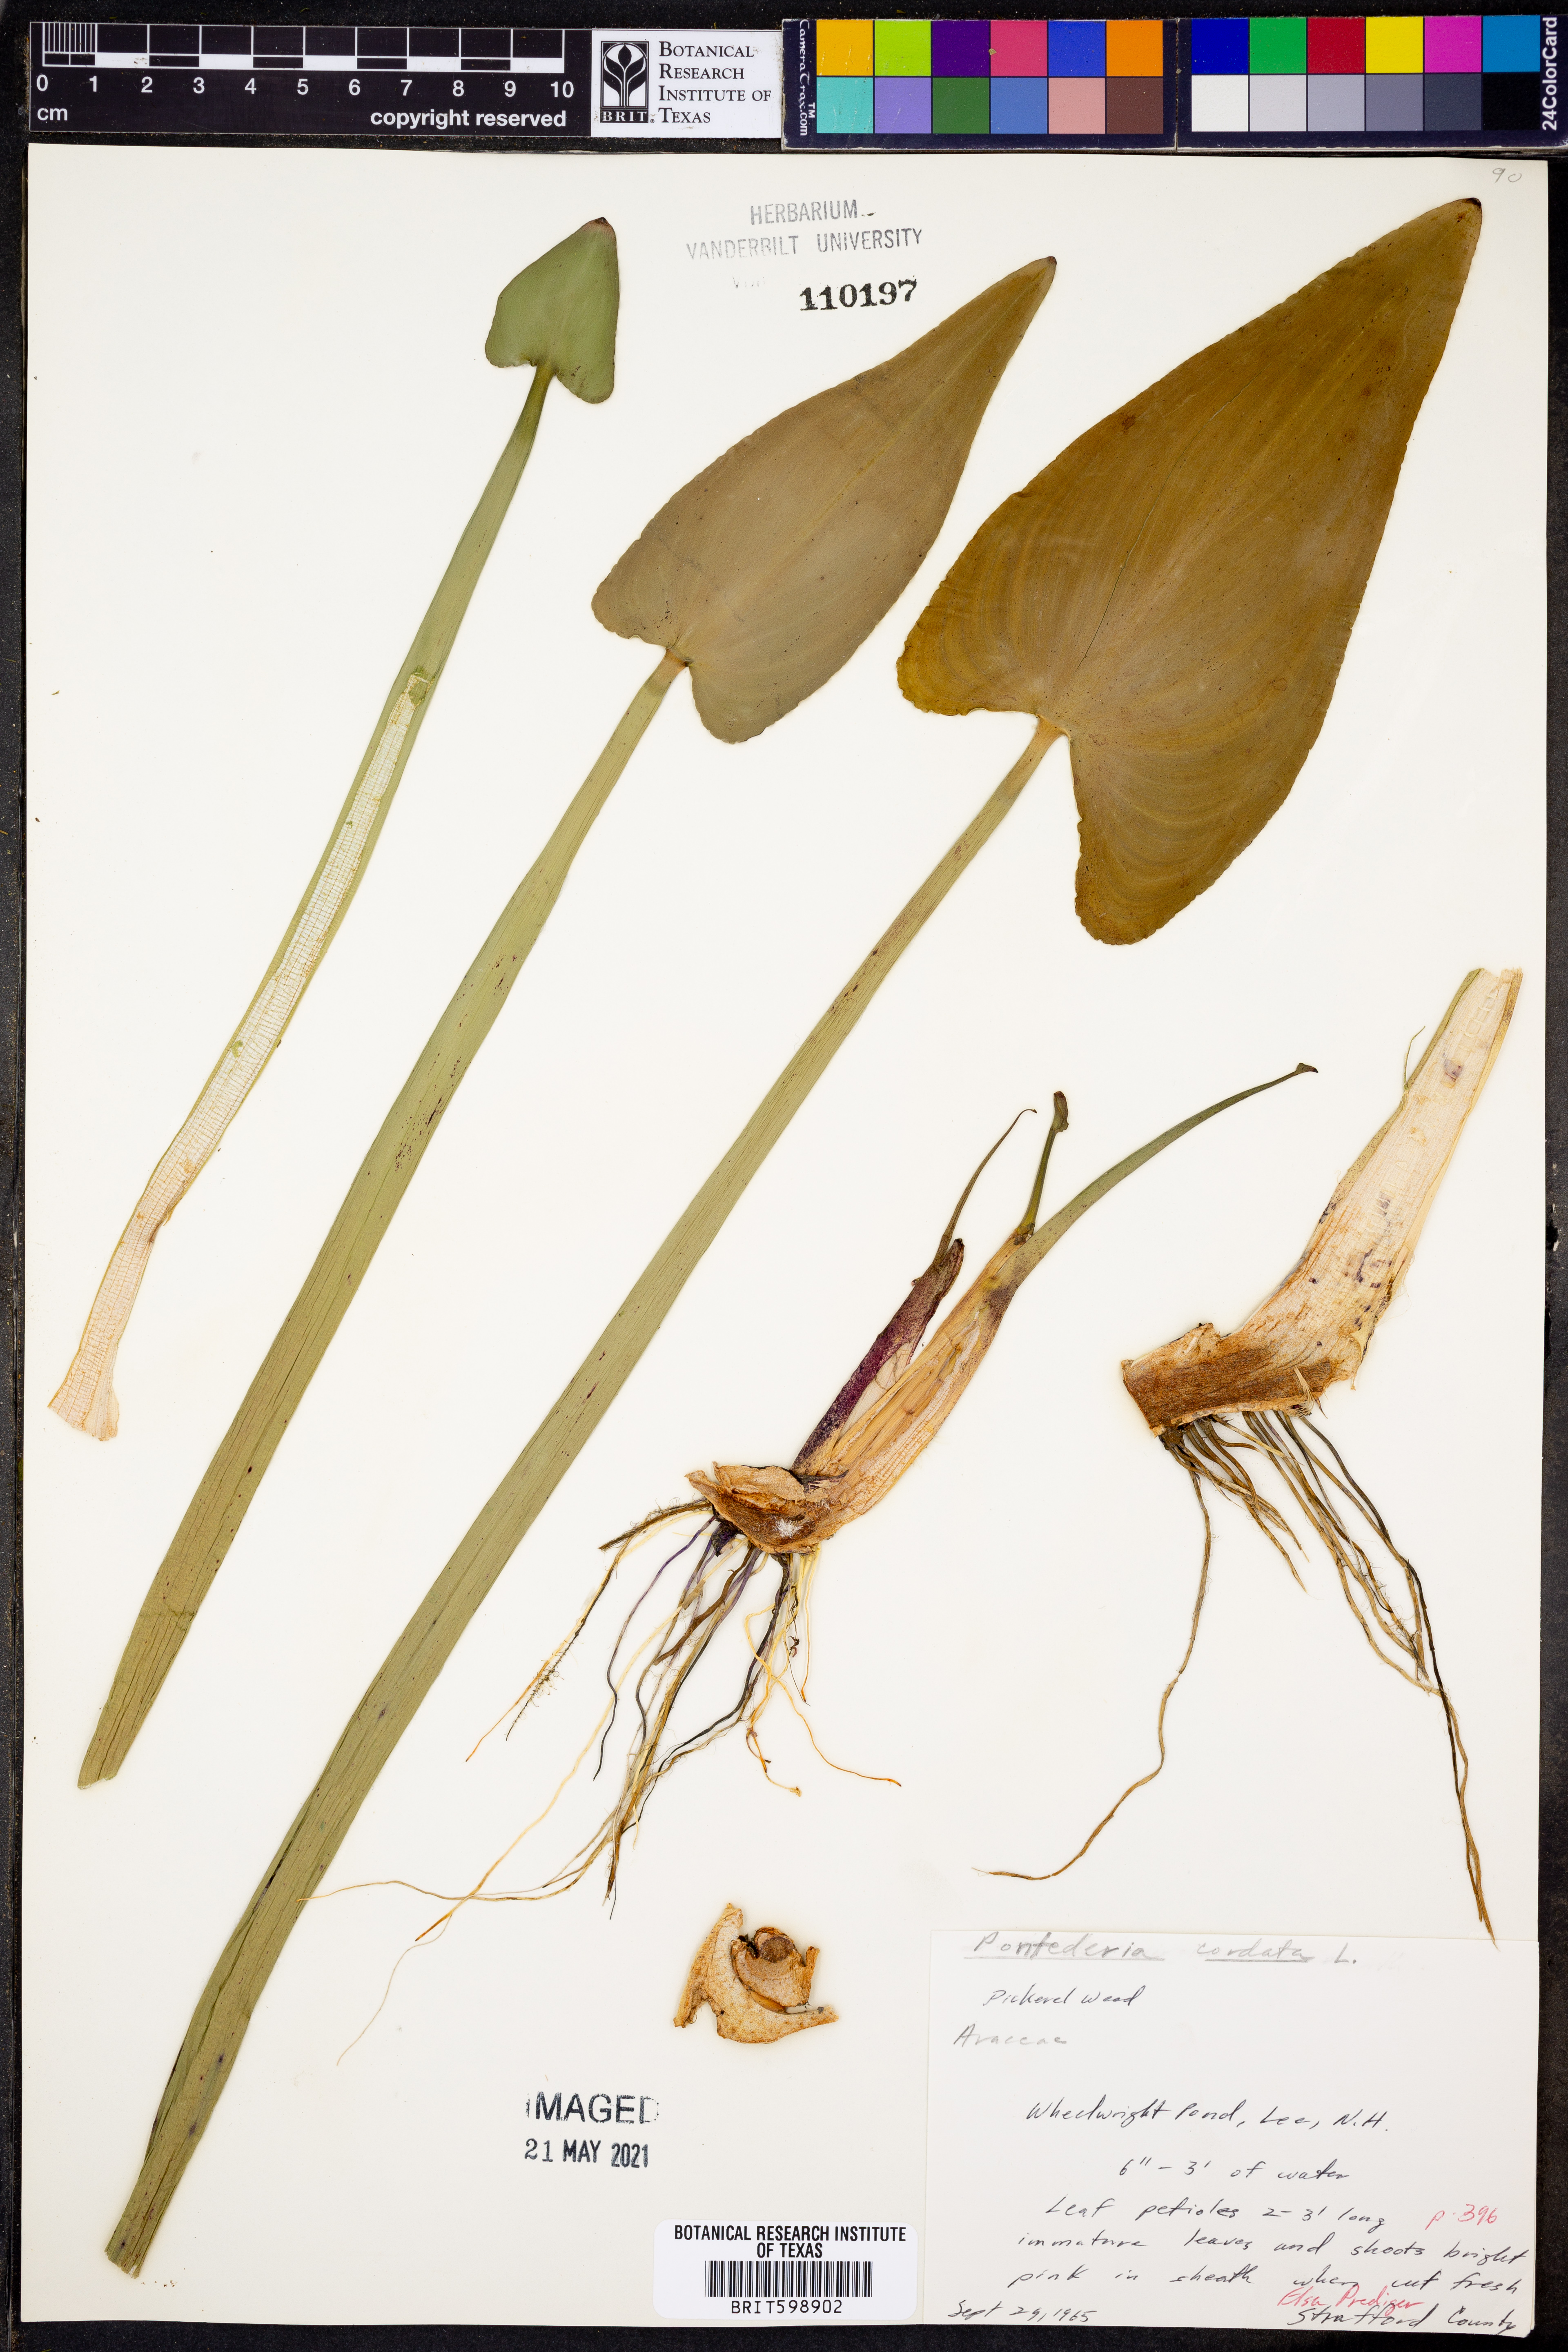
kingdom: Plantae
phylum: Tracheophyta
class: Liliopsida
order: Commelinales
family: Pontederiaceae
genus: Pontederia
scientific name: Pontederia cordata
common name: Pickerelweed
